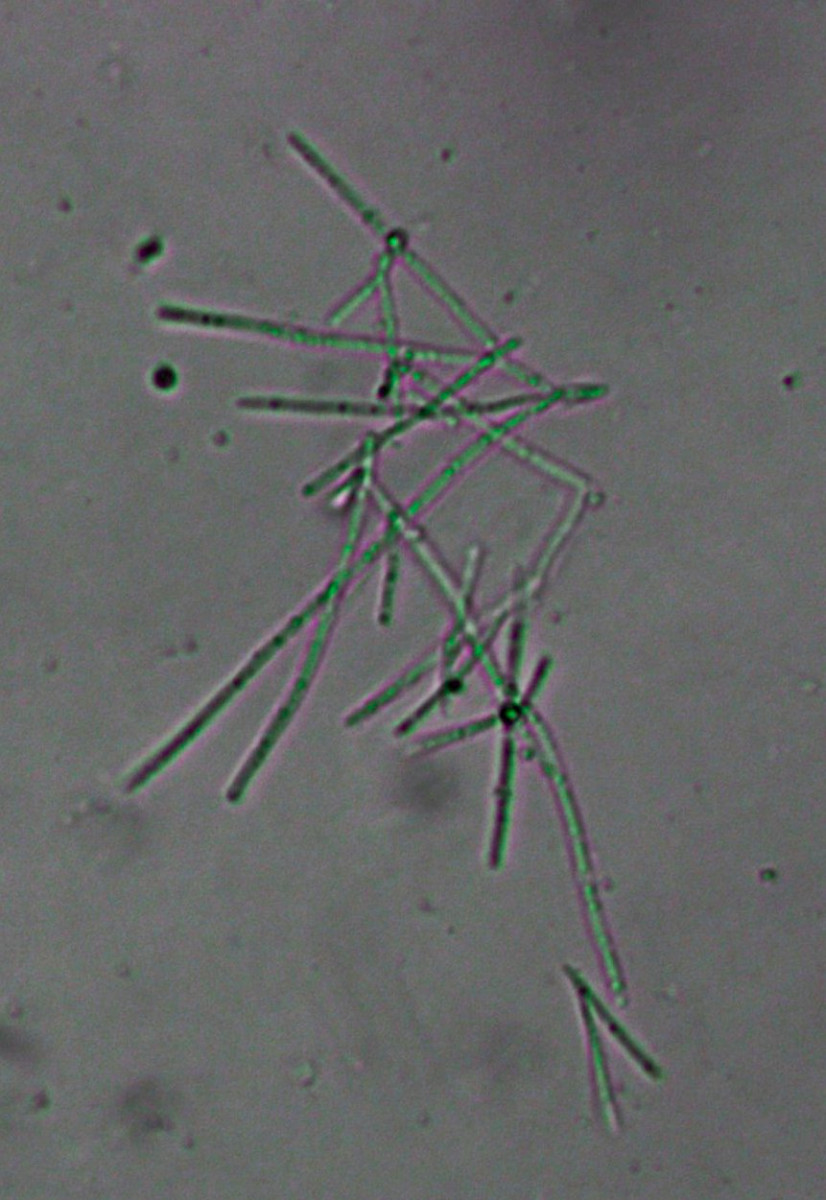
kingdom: Fungi
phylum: Ascomycota
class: Leotiomycetes
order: Helotiales
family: Ploettnerulaceae
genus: Cadophora
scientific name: Cadophora fallopiae
